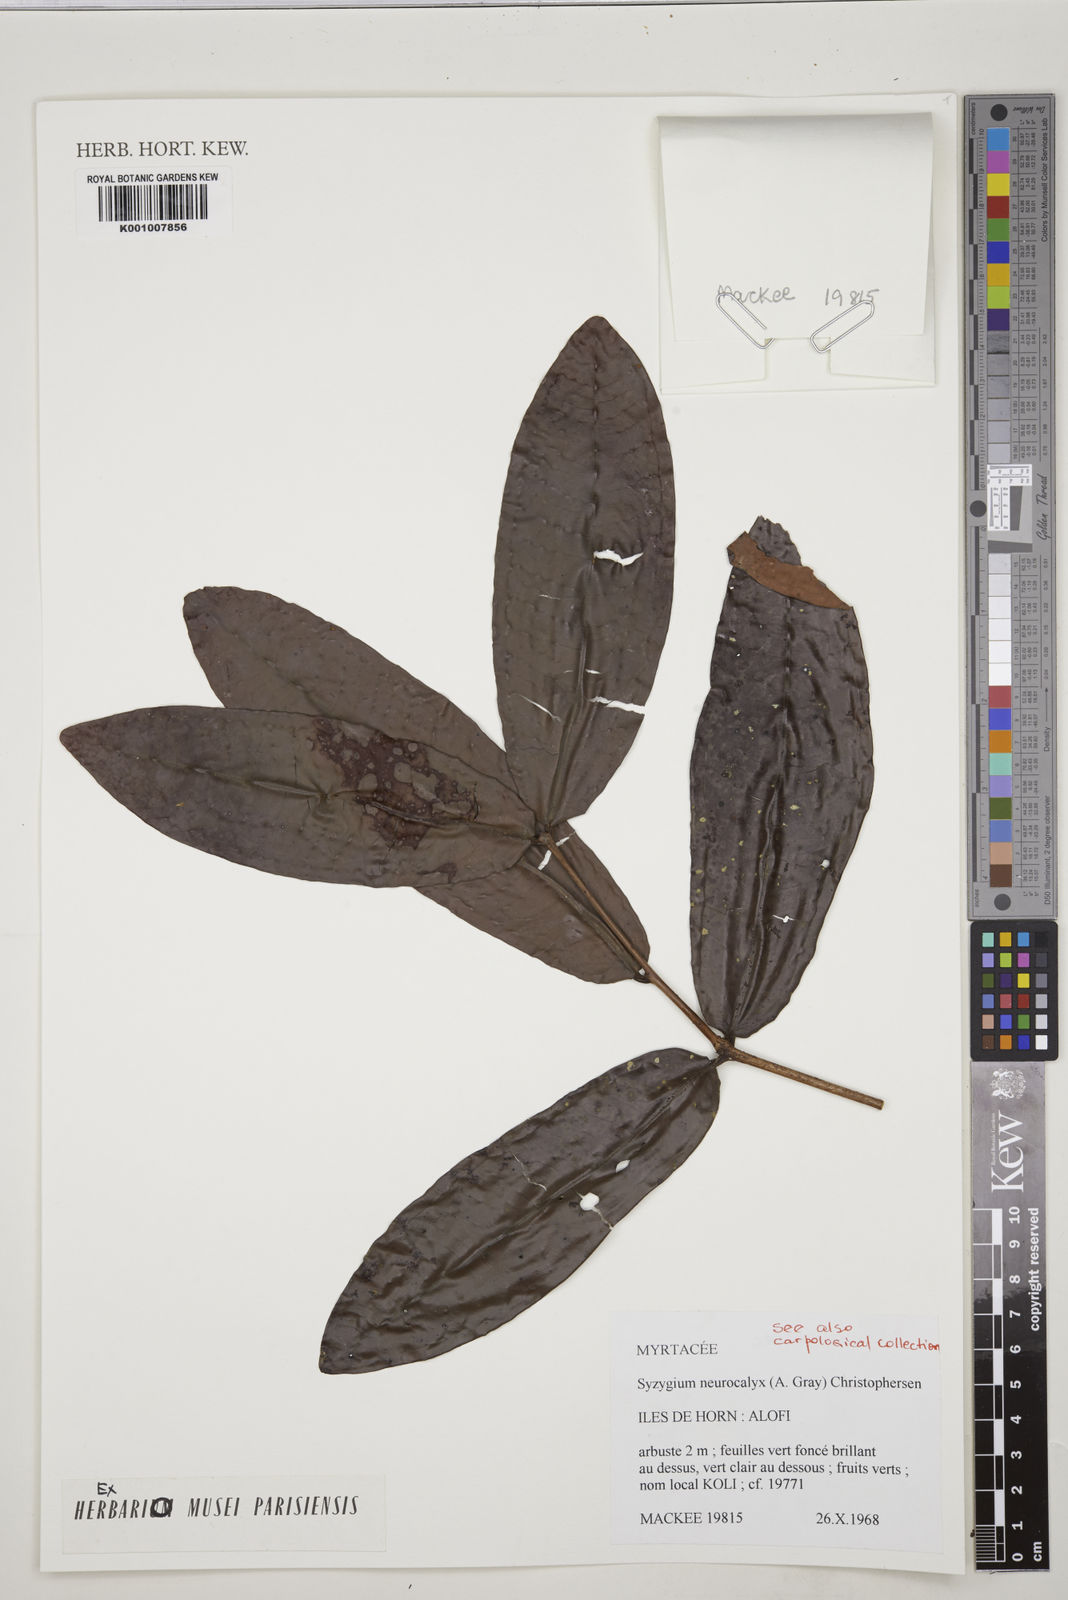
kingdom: Plantae
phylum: Tracheophyta
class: Magnoliopsida
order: Myrtales
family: Myrtaceae
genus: Syzygium
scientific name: Syzygium neurocalyx
